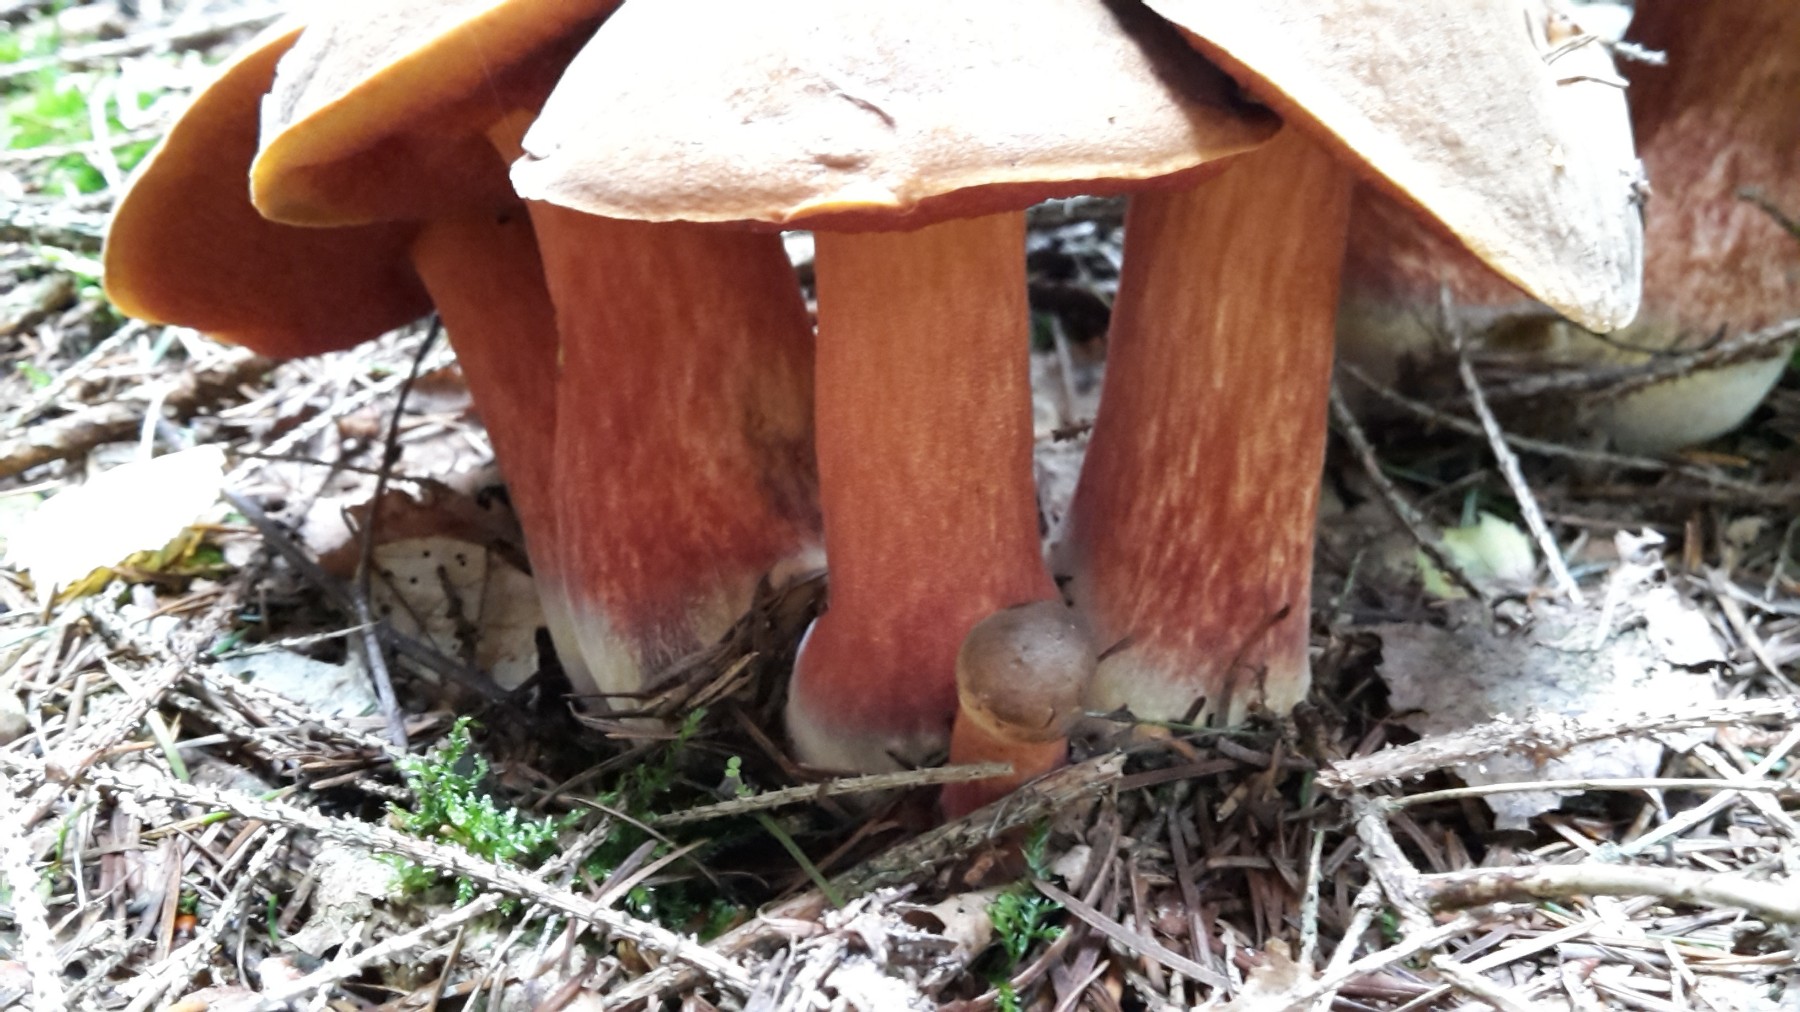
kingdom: Fungi
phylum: Basidiomycota
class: Agaricomycetes
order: Boletales
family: Boletaceae
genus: Neoboletus
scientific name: Neoboletus erythropus
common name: punktstokket indigorørhat
